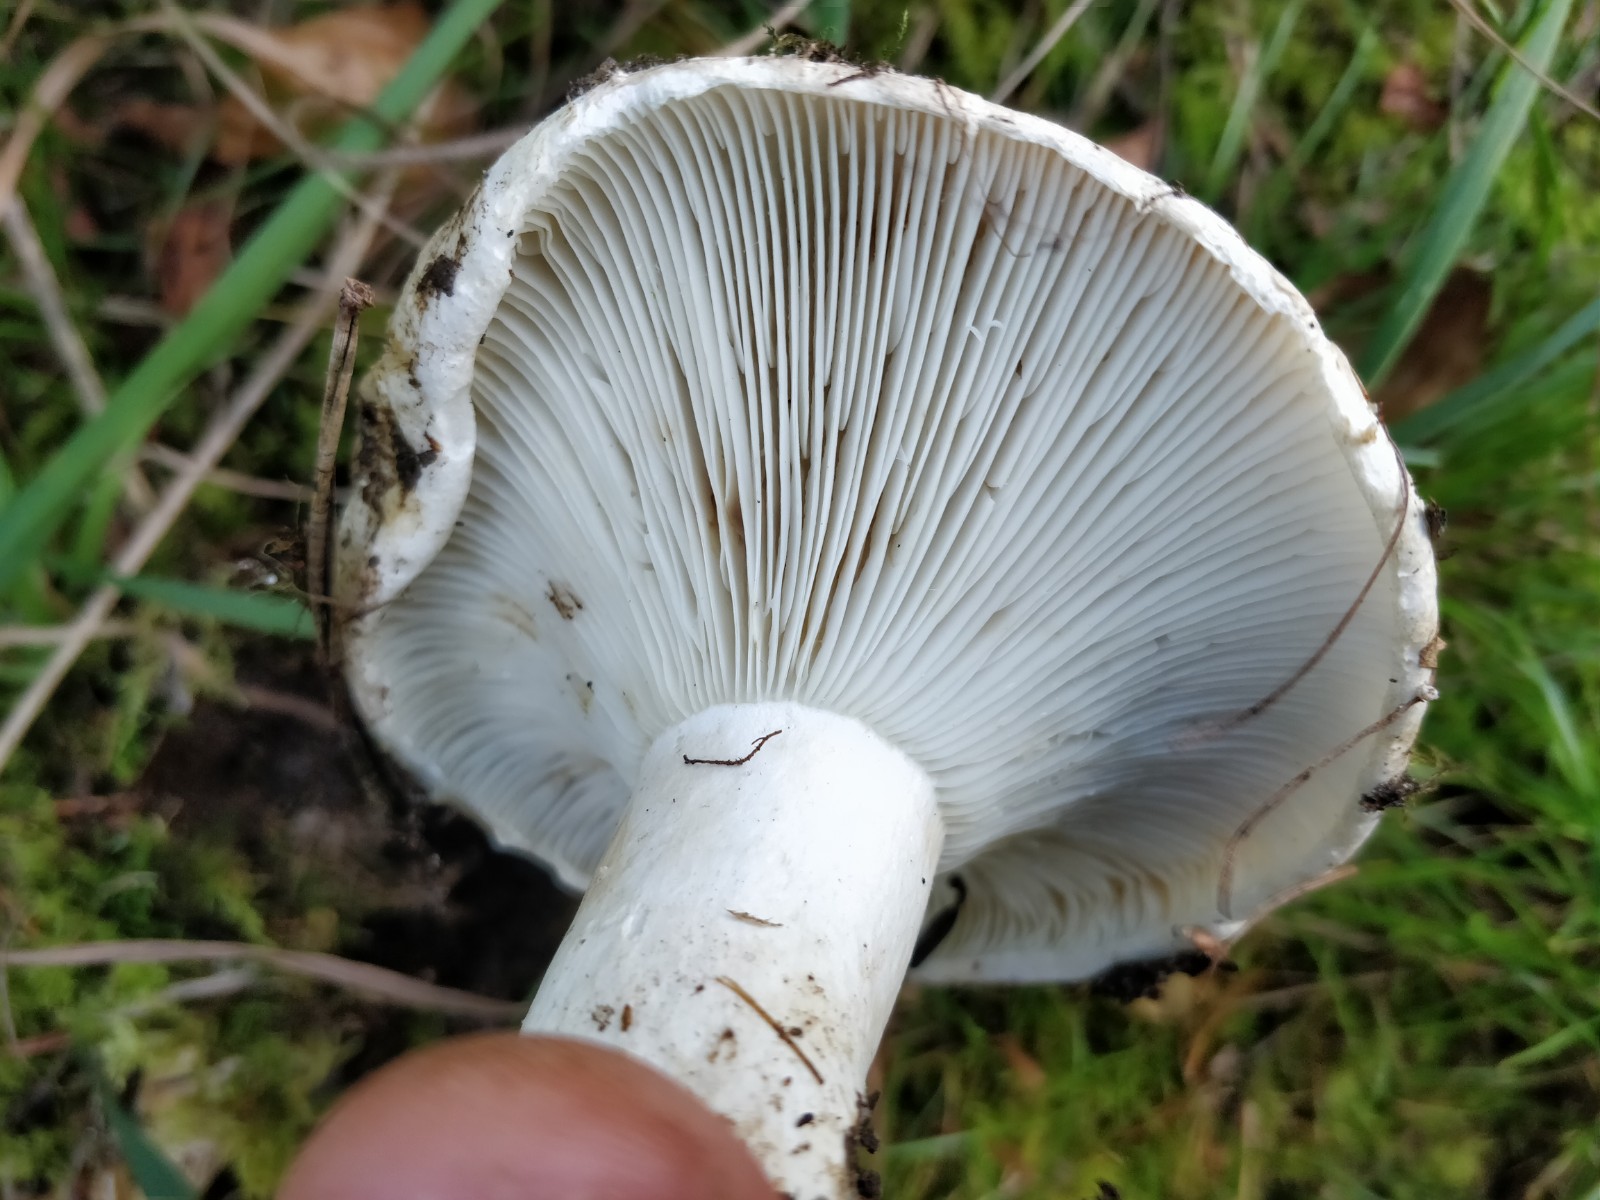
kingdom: Fungi
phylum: Basidiomycota
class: Agaricomycetes
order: Russulales
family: Russulaceae
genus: Russula
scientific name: Russula
